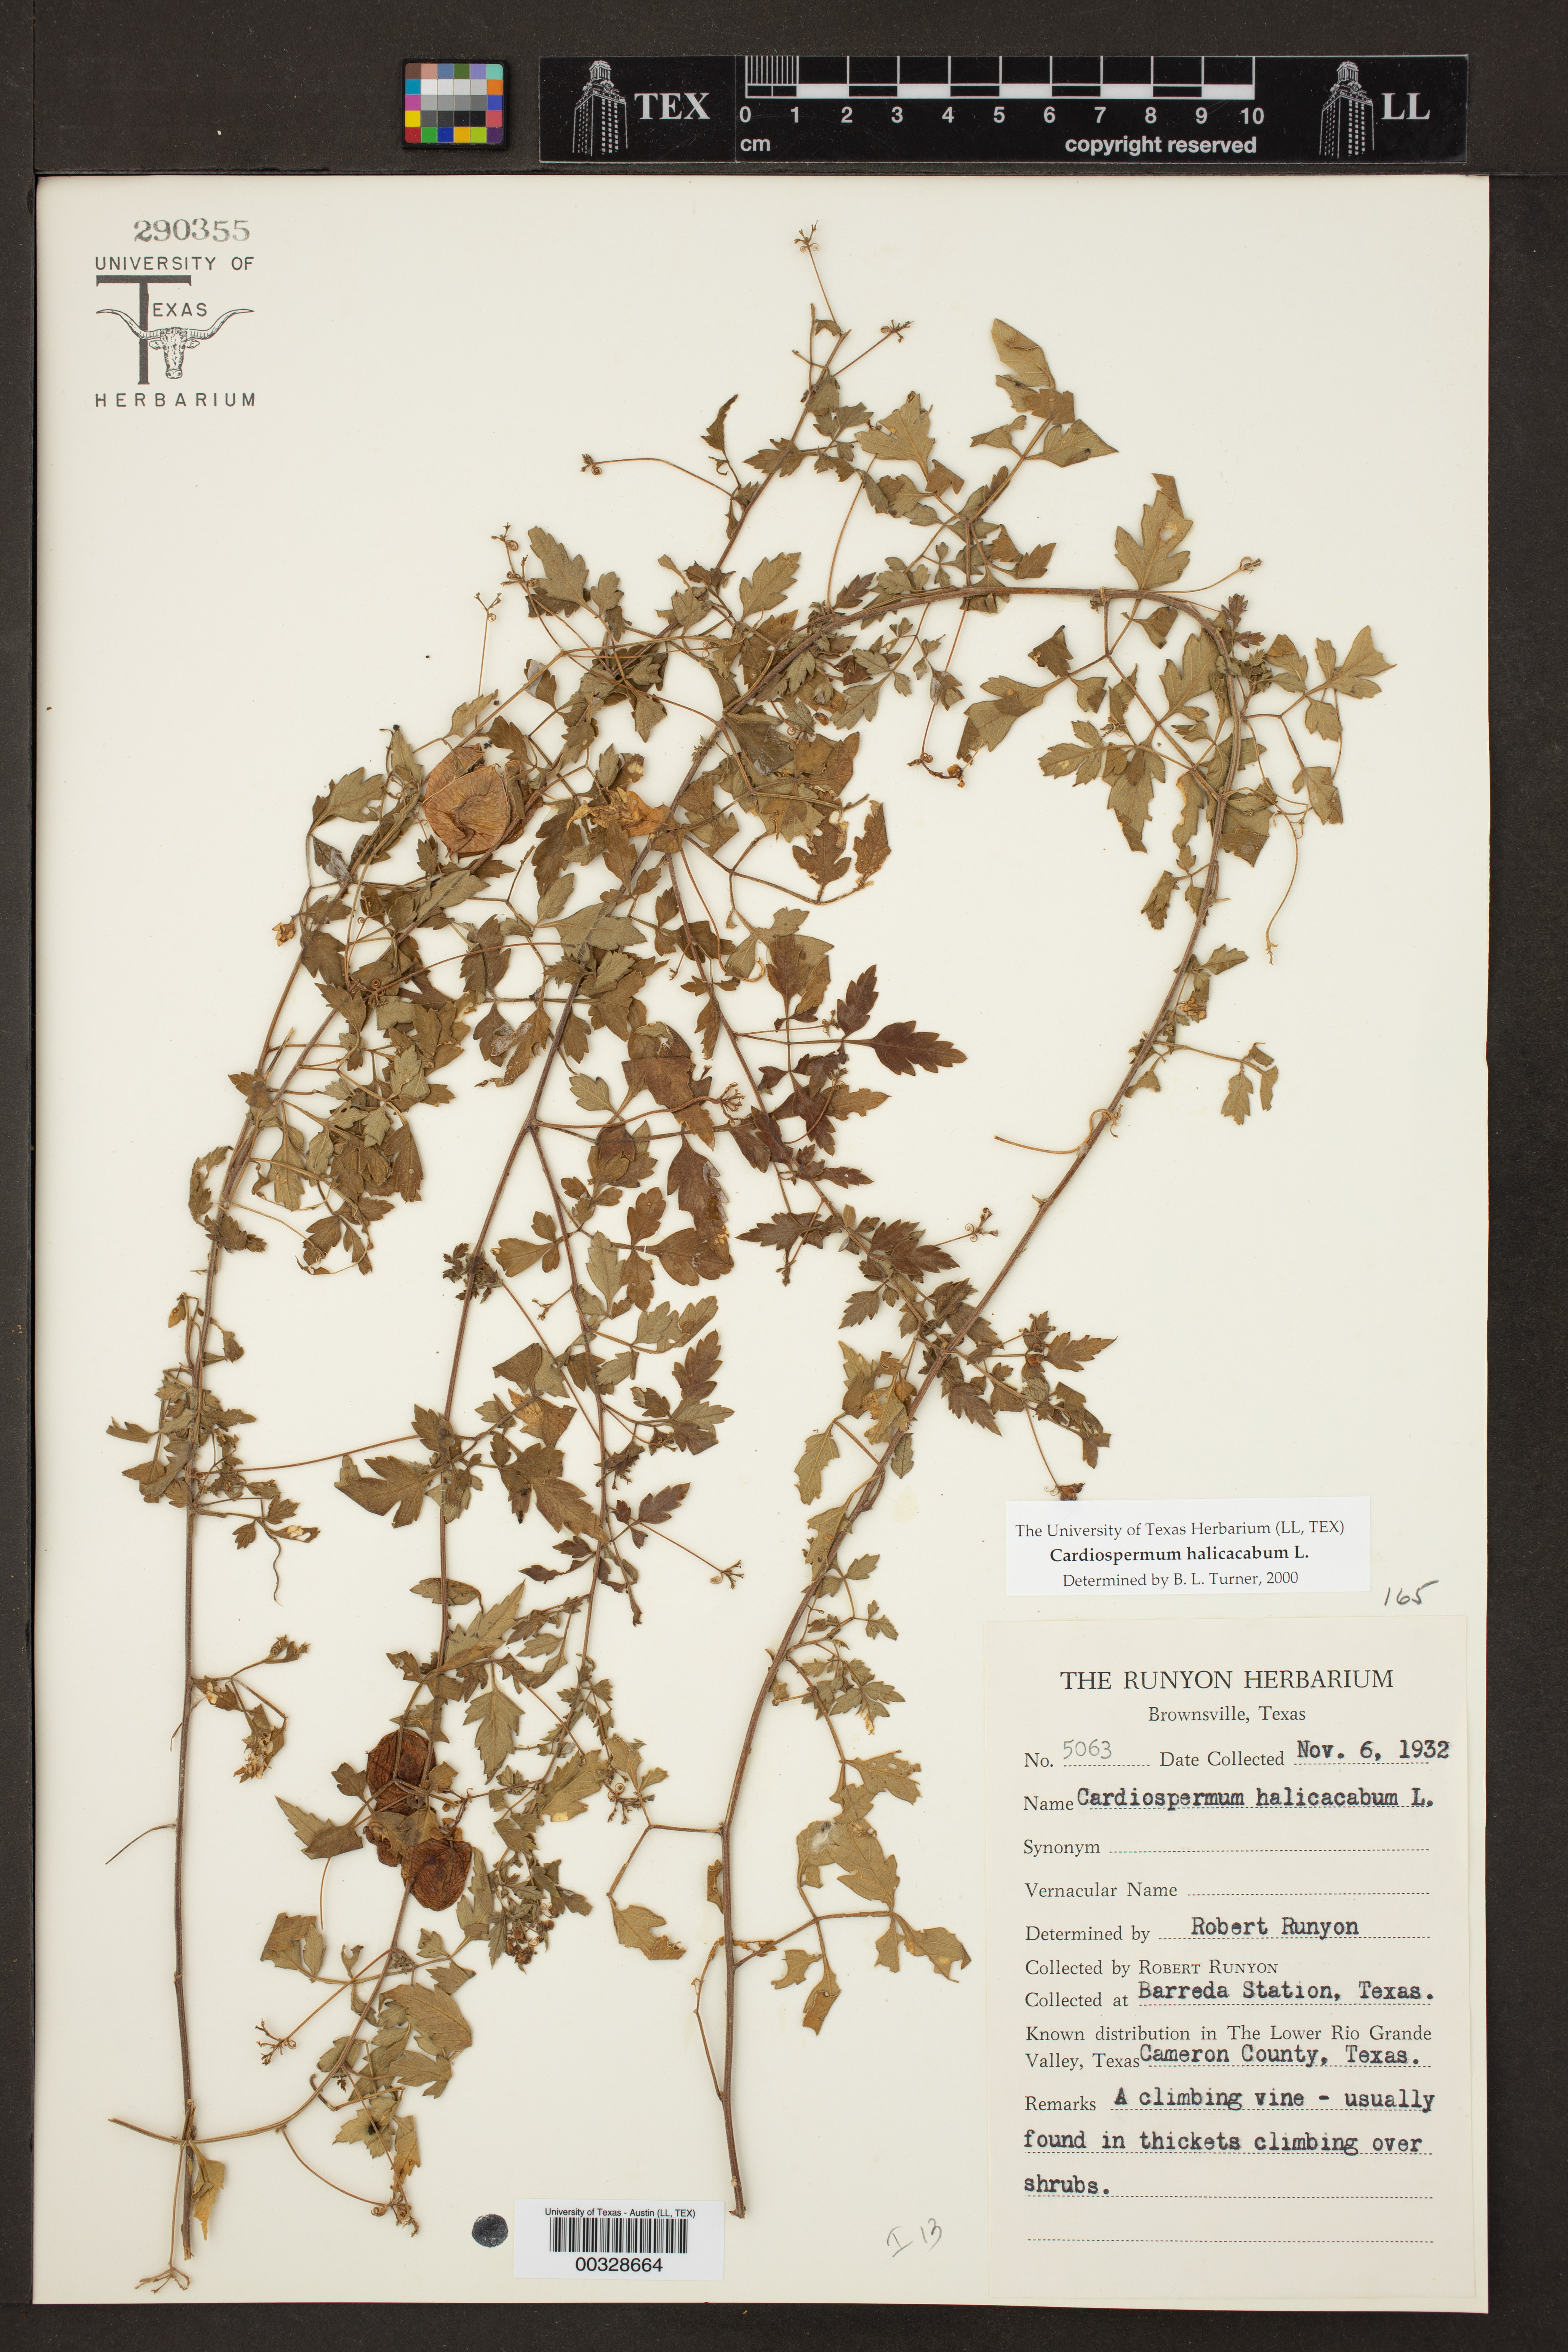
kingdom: Plantae
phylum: Tracheophyta
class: Magnoliopsida
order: Sapindales
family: Sapindaceae
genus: Cardiospermum
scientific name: Cardiospermum halicacabum
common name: Balloon vine
